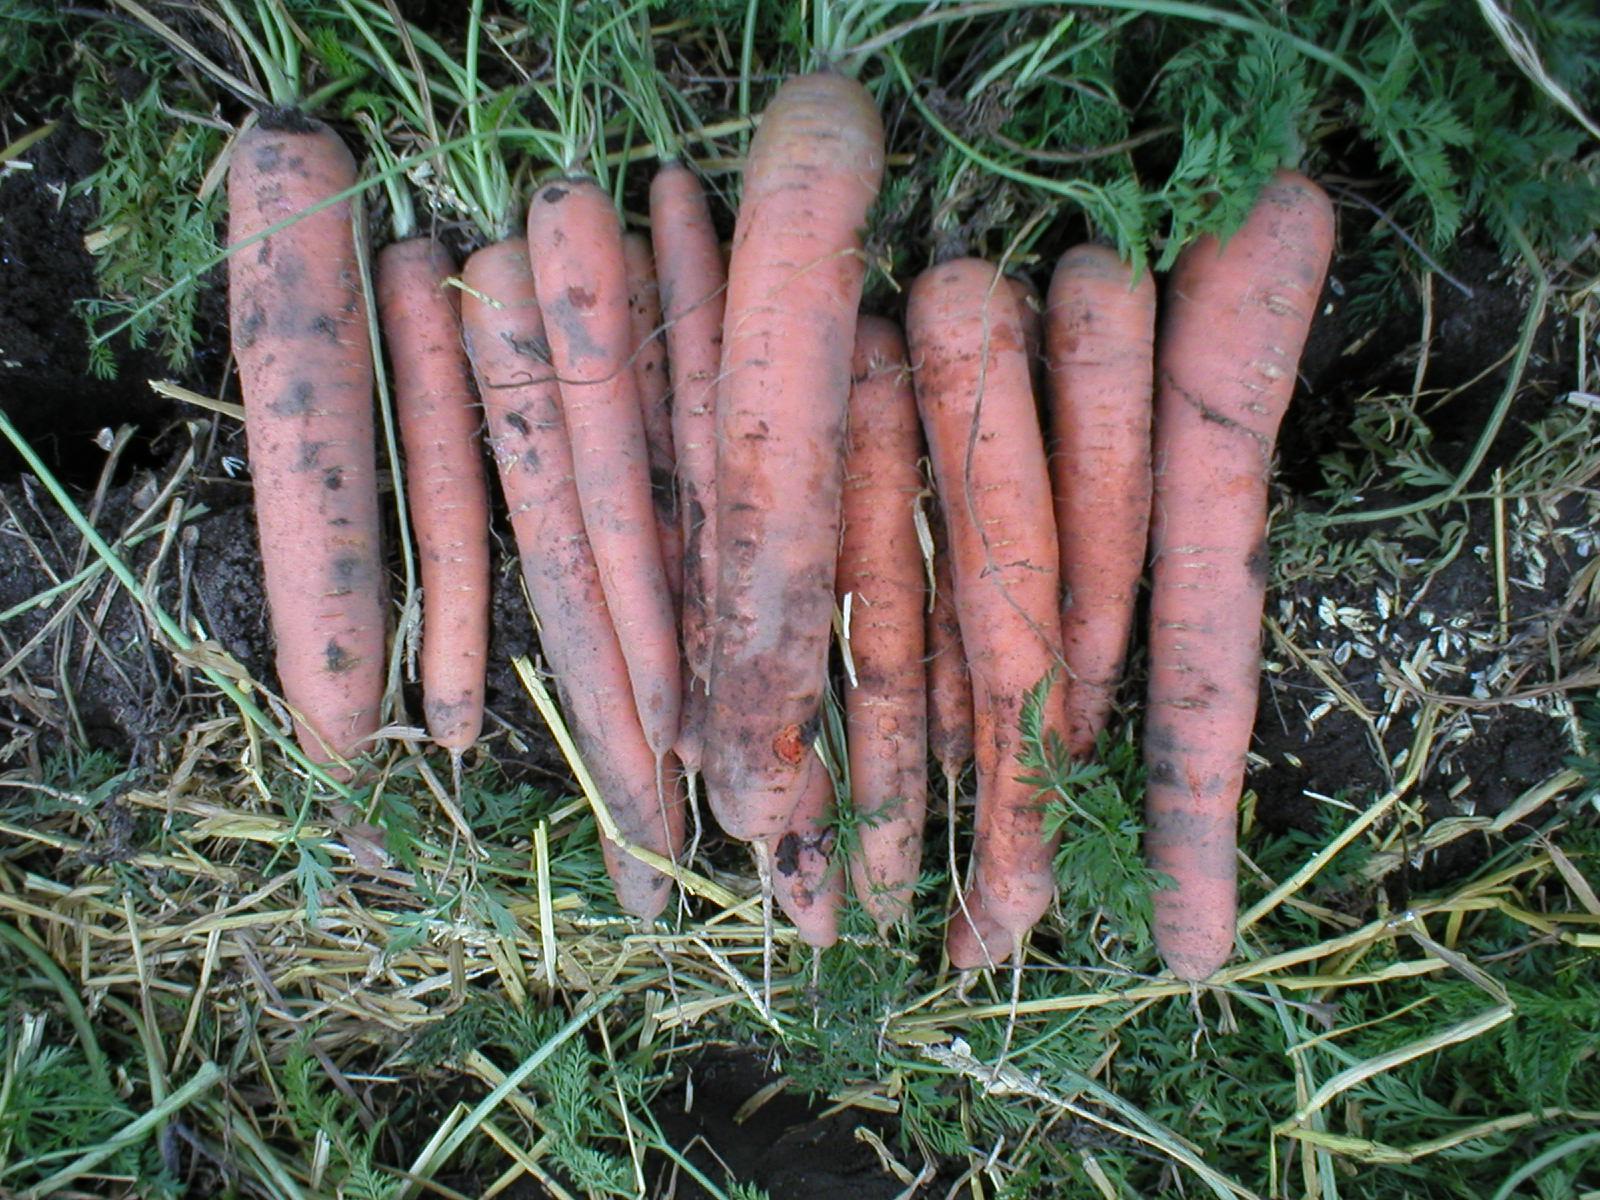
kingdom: Plantae
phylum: Tracheophyta
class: Magnoliopsida
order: Apiales
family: Apiaceae
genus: Daucus
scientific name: Daucus carota
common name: Wild carrot
